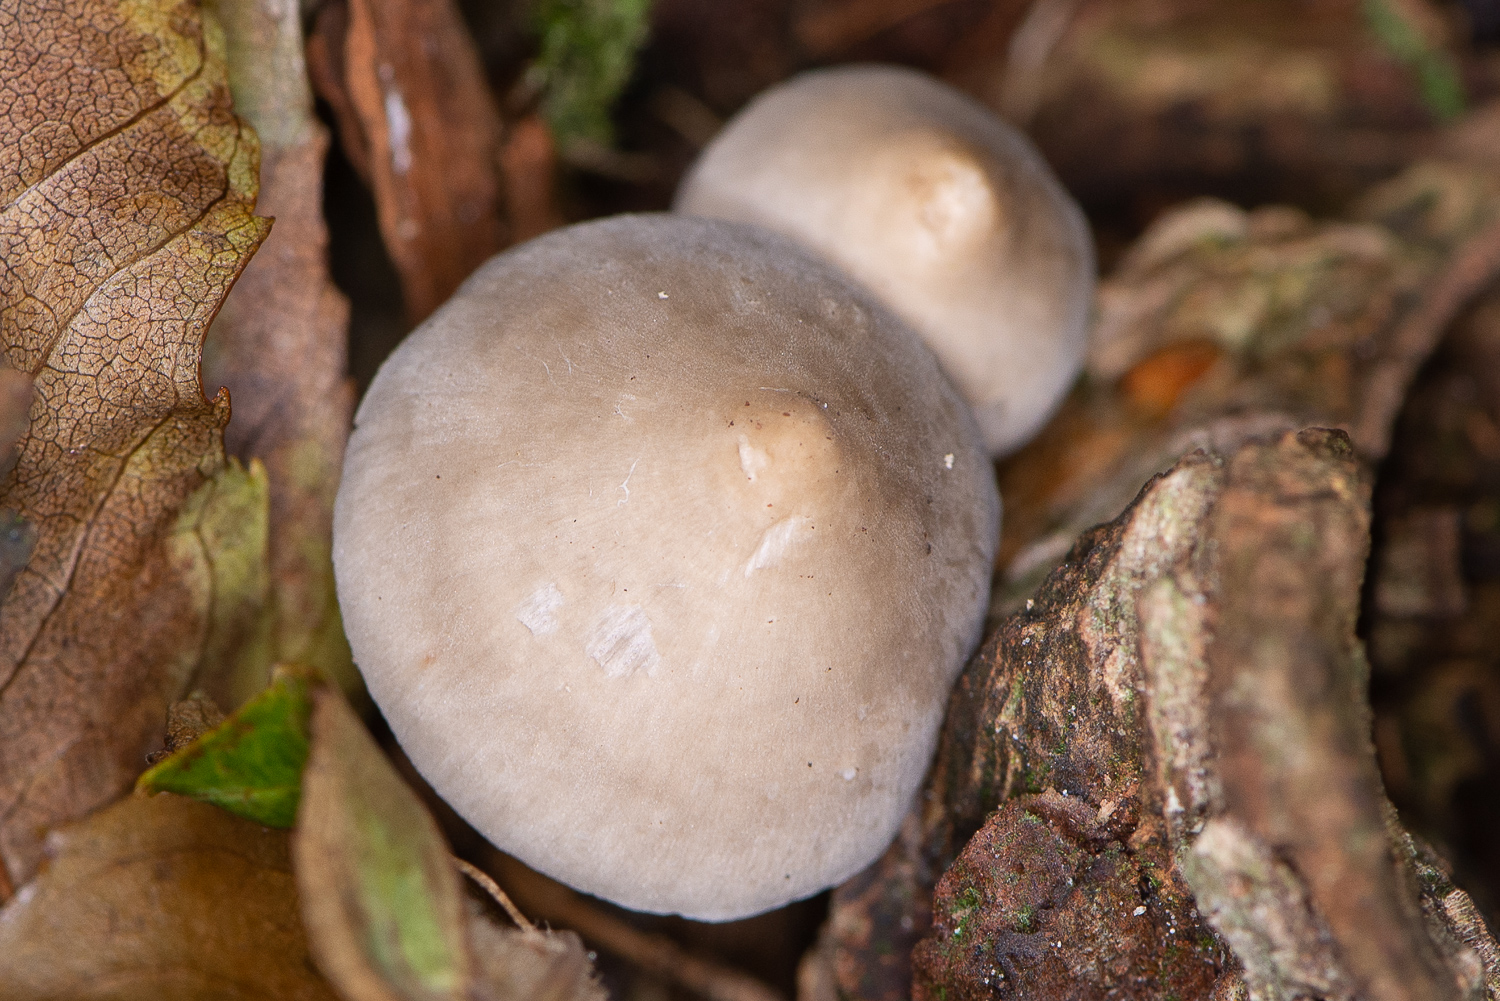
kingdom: Fungi
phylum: Basidiomycota
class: Agaricomycetes
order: Agaricales
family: Mycenaceae
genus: Mycena
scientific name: Mycena galericulata
